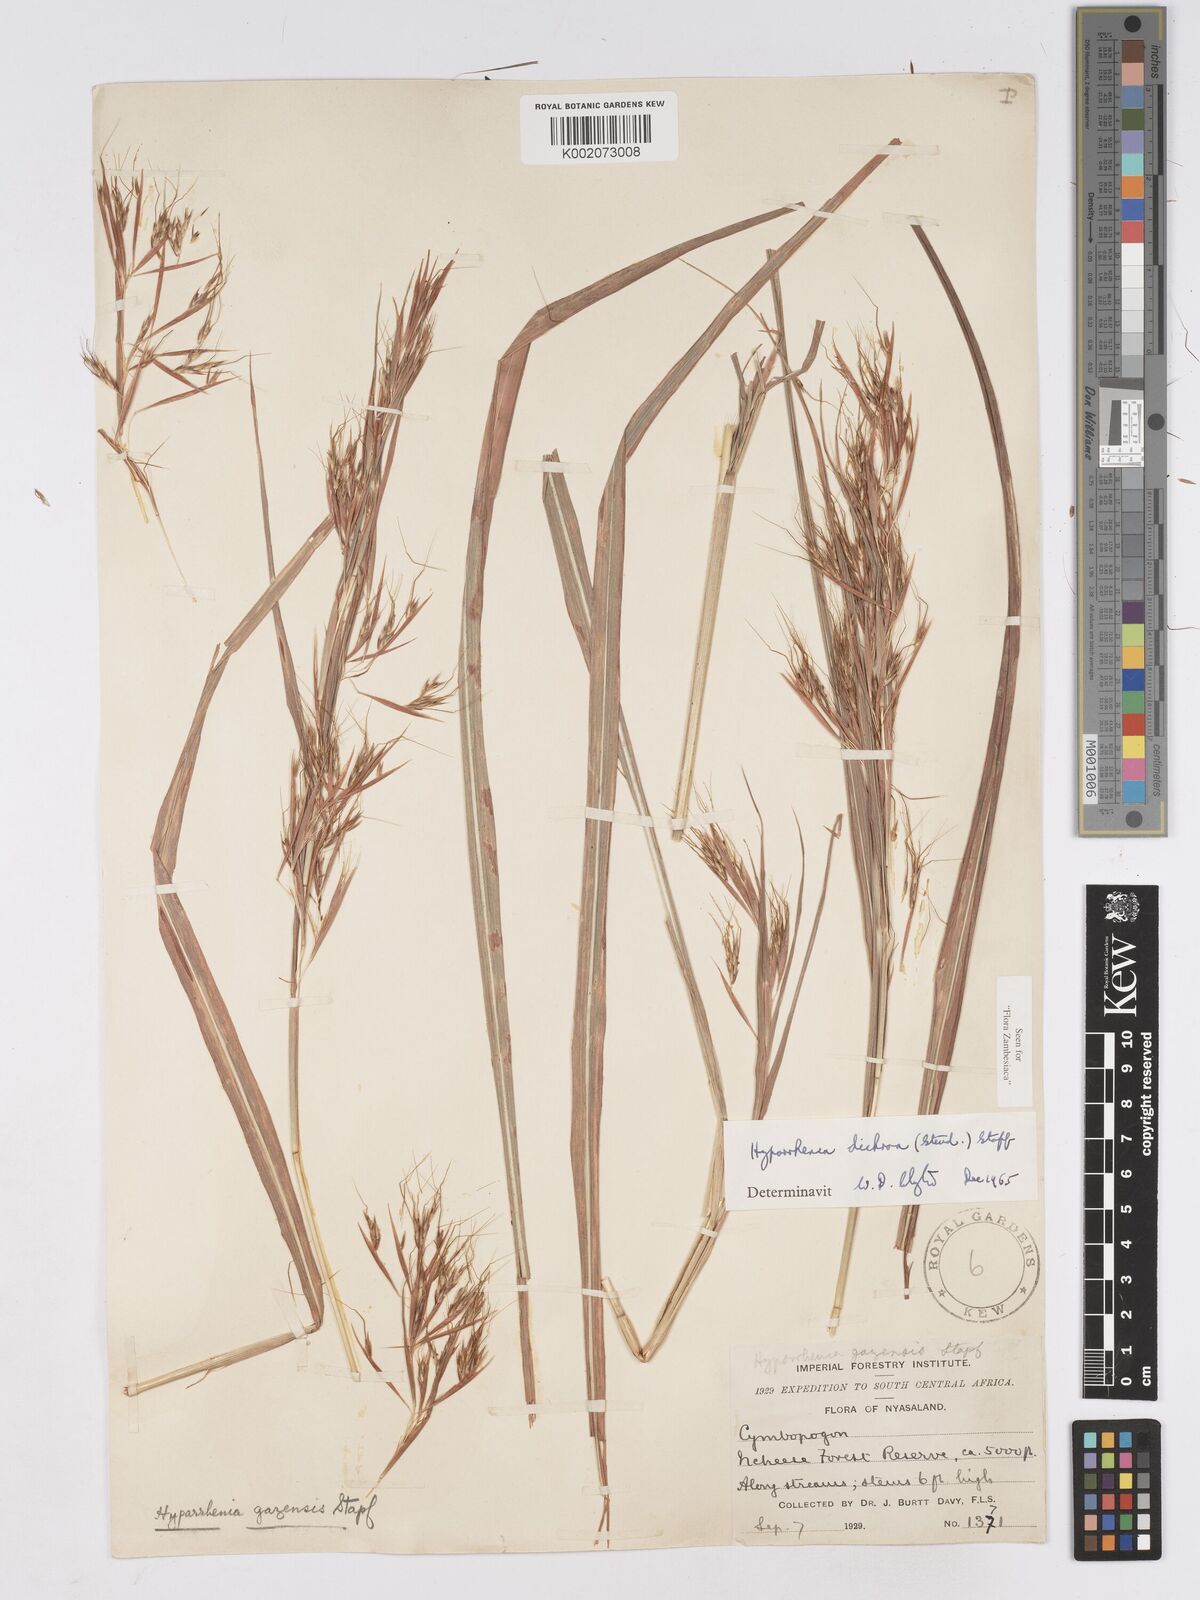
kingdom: Plantae
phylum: Tracheophyta
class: Liliopsida
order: Poales
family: Poaceae
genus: Hyparrhenia
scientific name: Hyparrhenia dichroa
